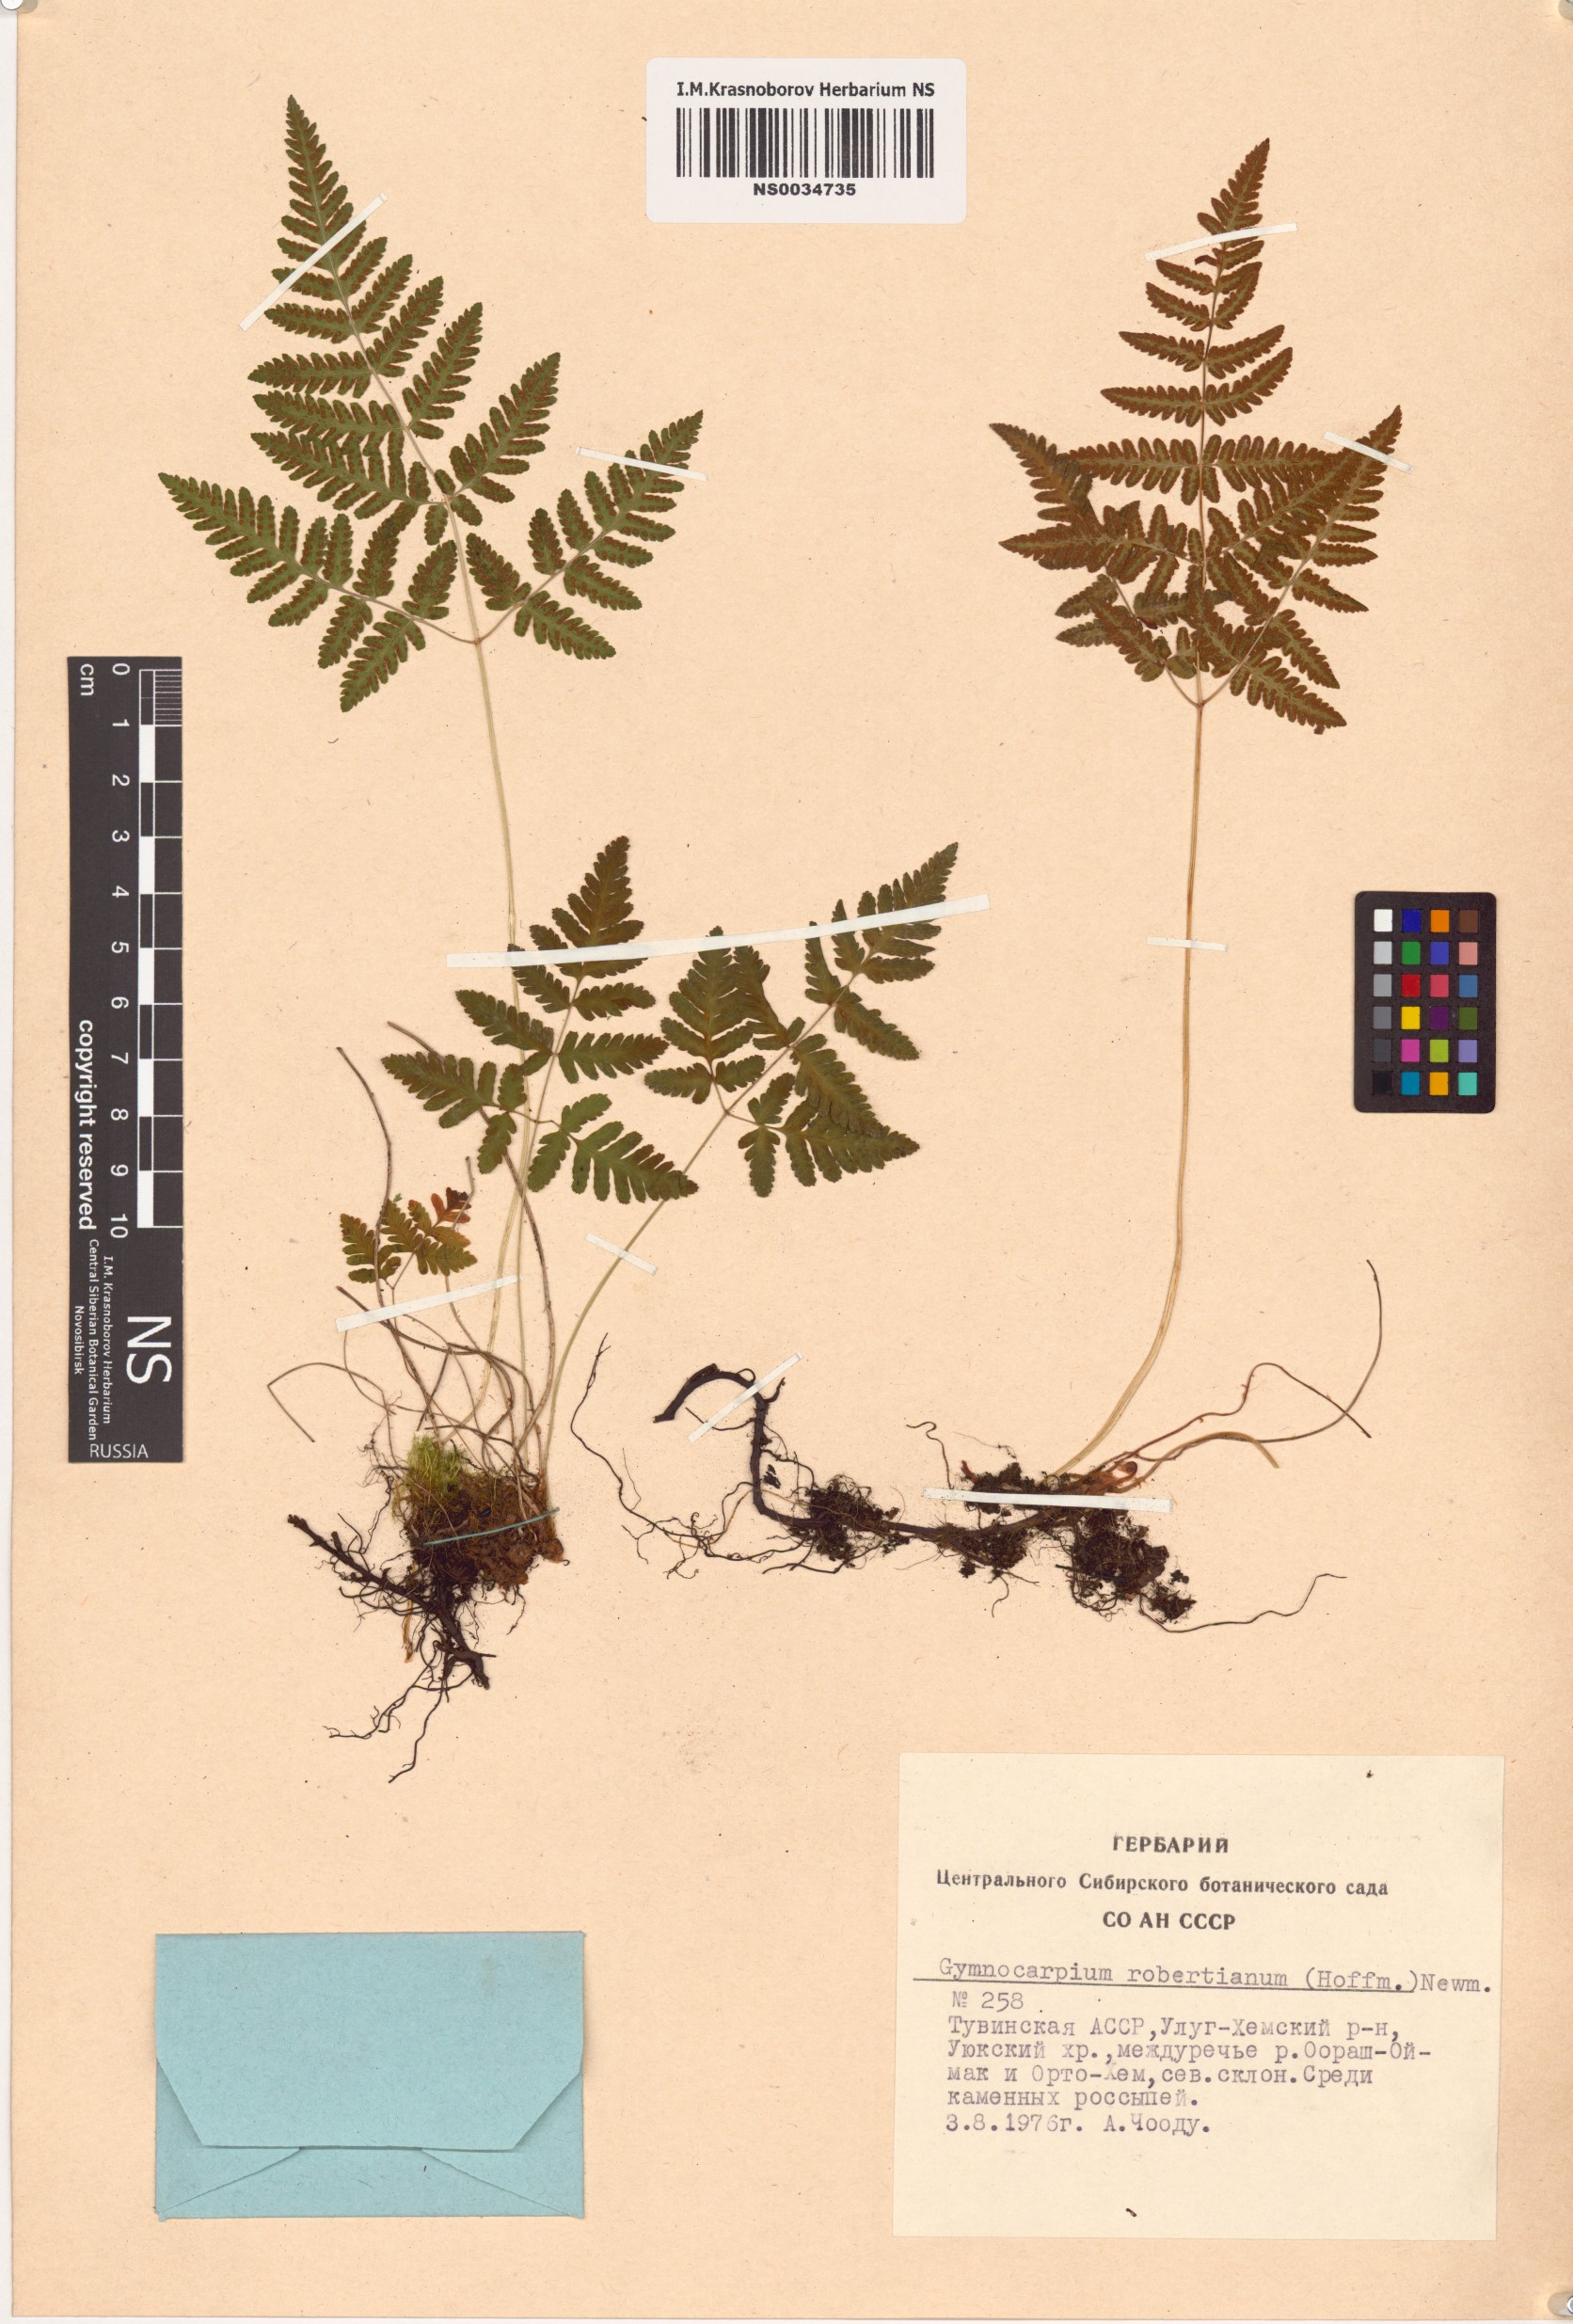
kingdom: Plantae
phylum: Tracheophyta
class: Polypodiopsida
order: Polypodiales
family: Cystopteridaceae
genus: Gymnocarpium
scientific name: Gymnocarpium robertianum
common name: Limestone fern
